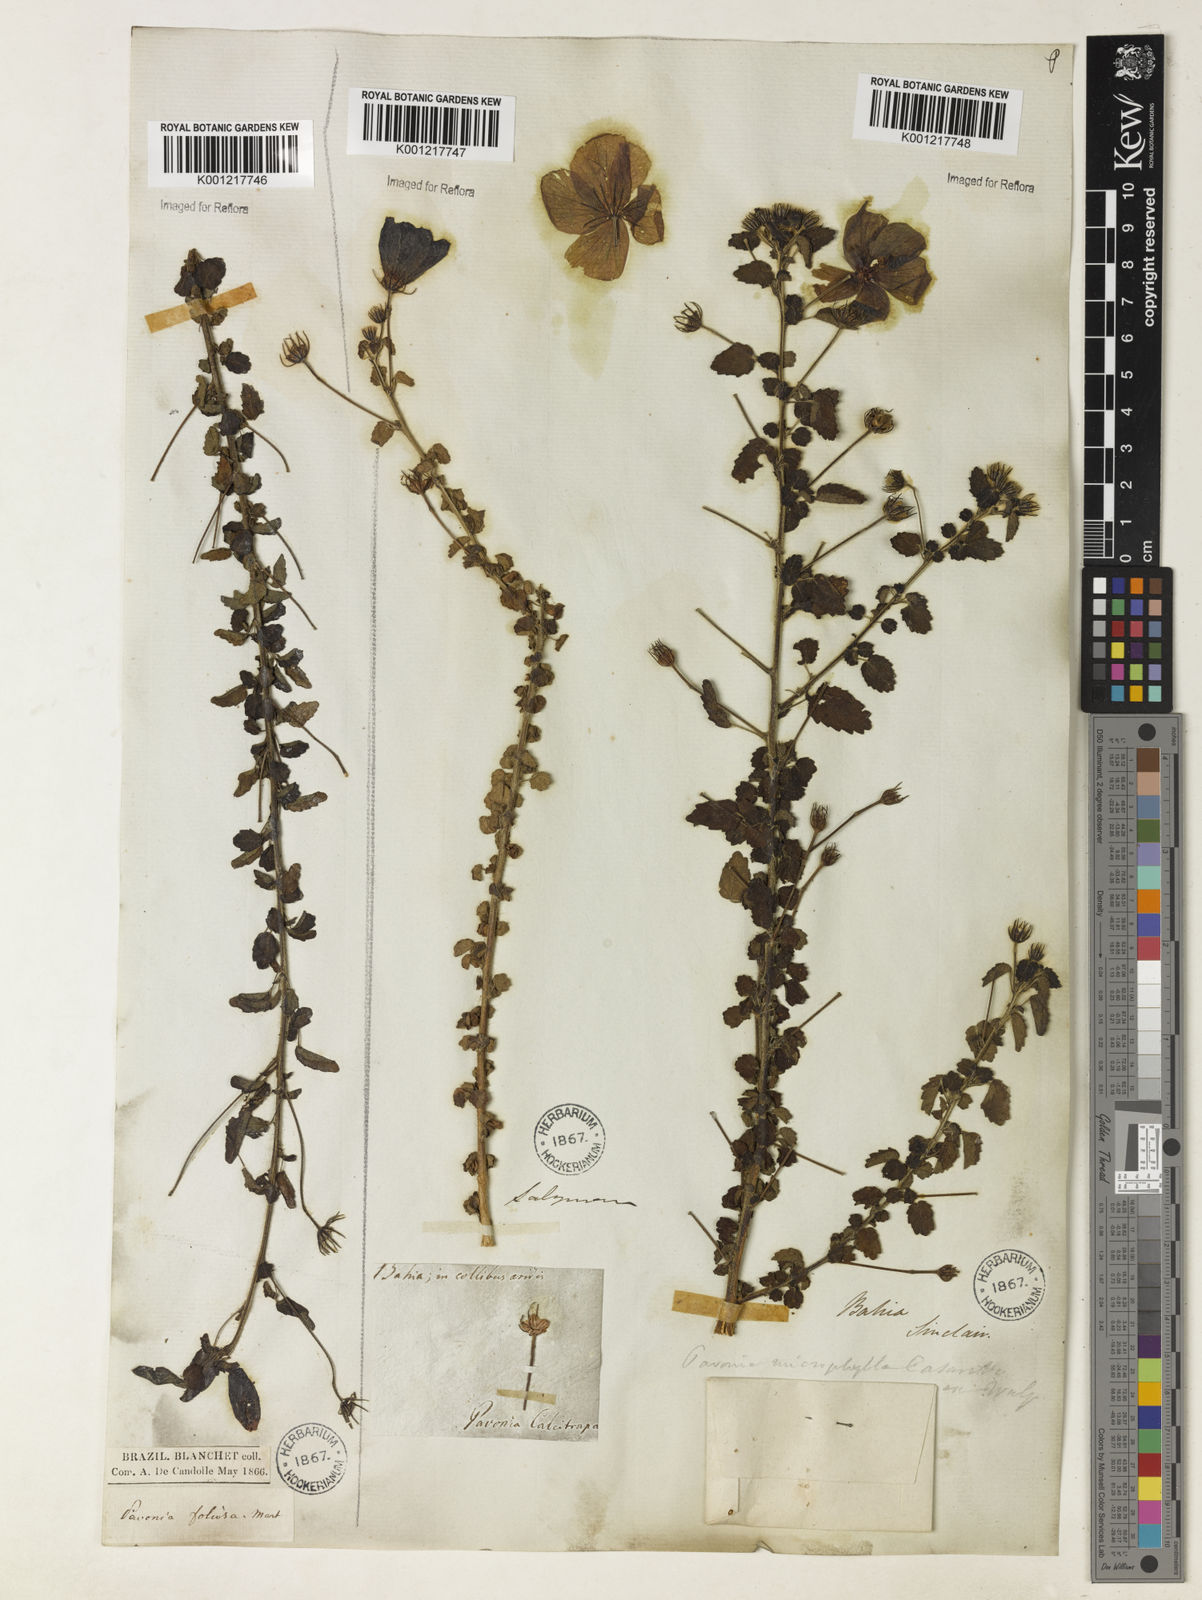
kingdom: Plantae
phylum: Tracheophyta
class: Magnoliopsida
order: Malvales
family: Malvaceae
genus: Pavonia
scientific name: Pavonia martii
